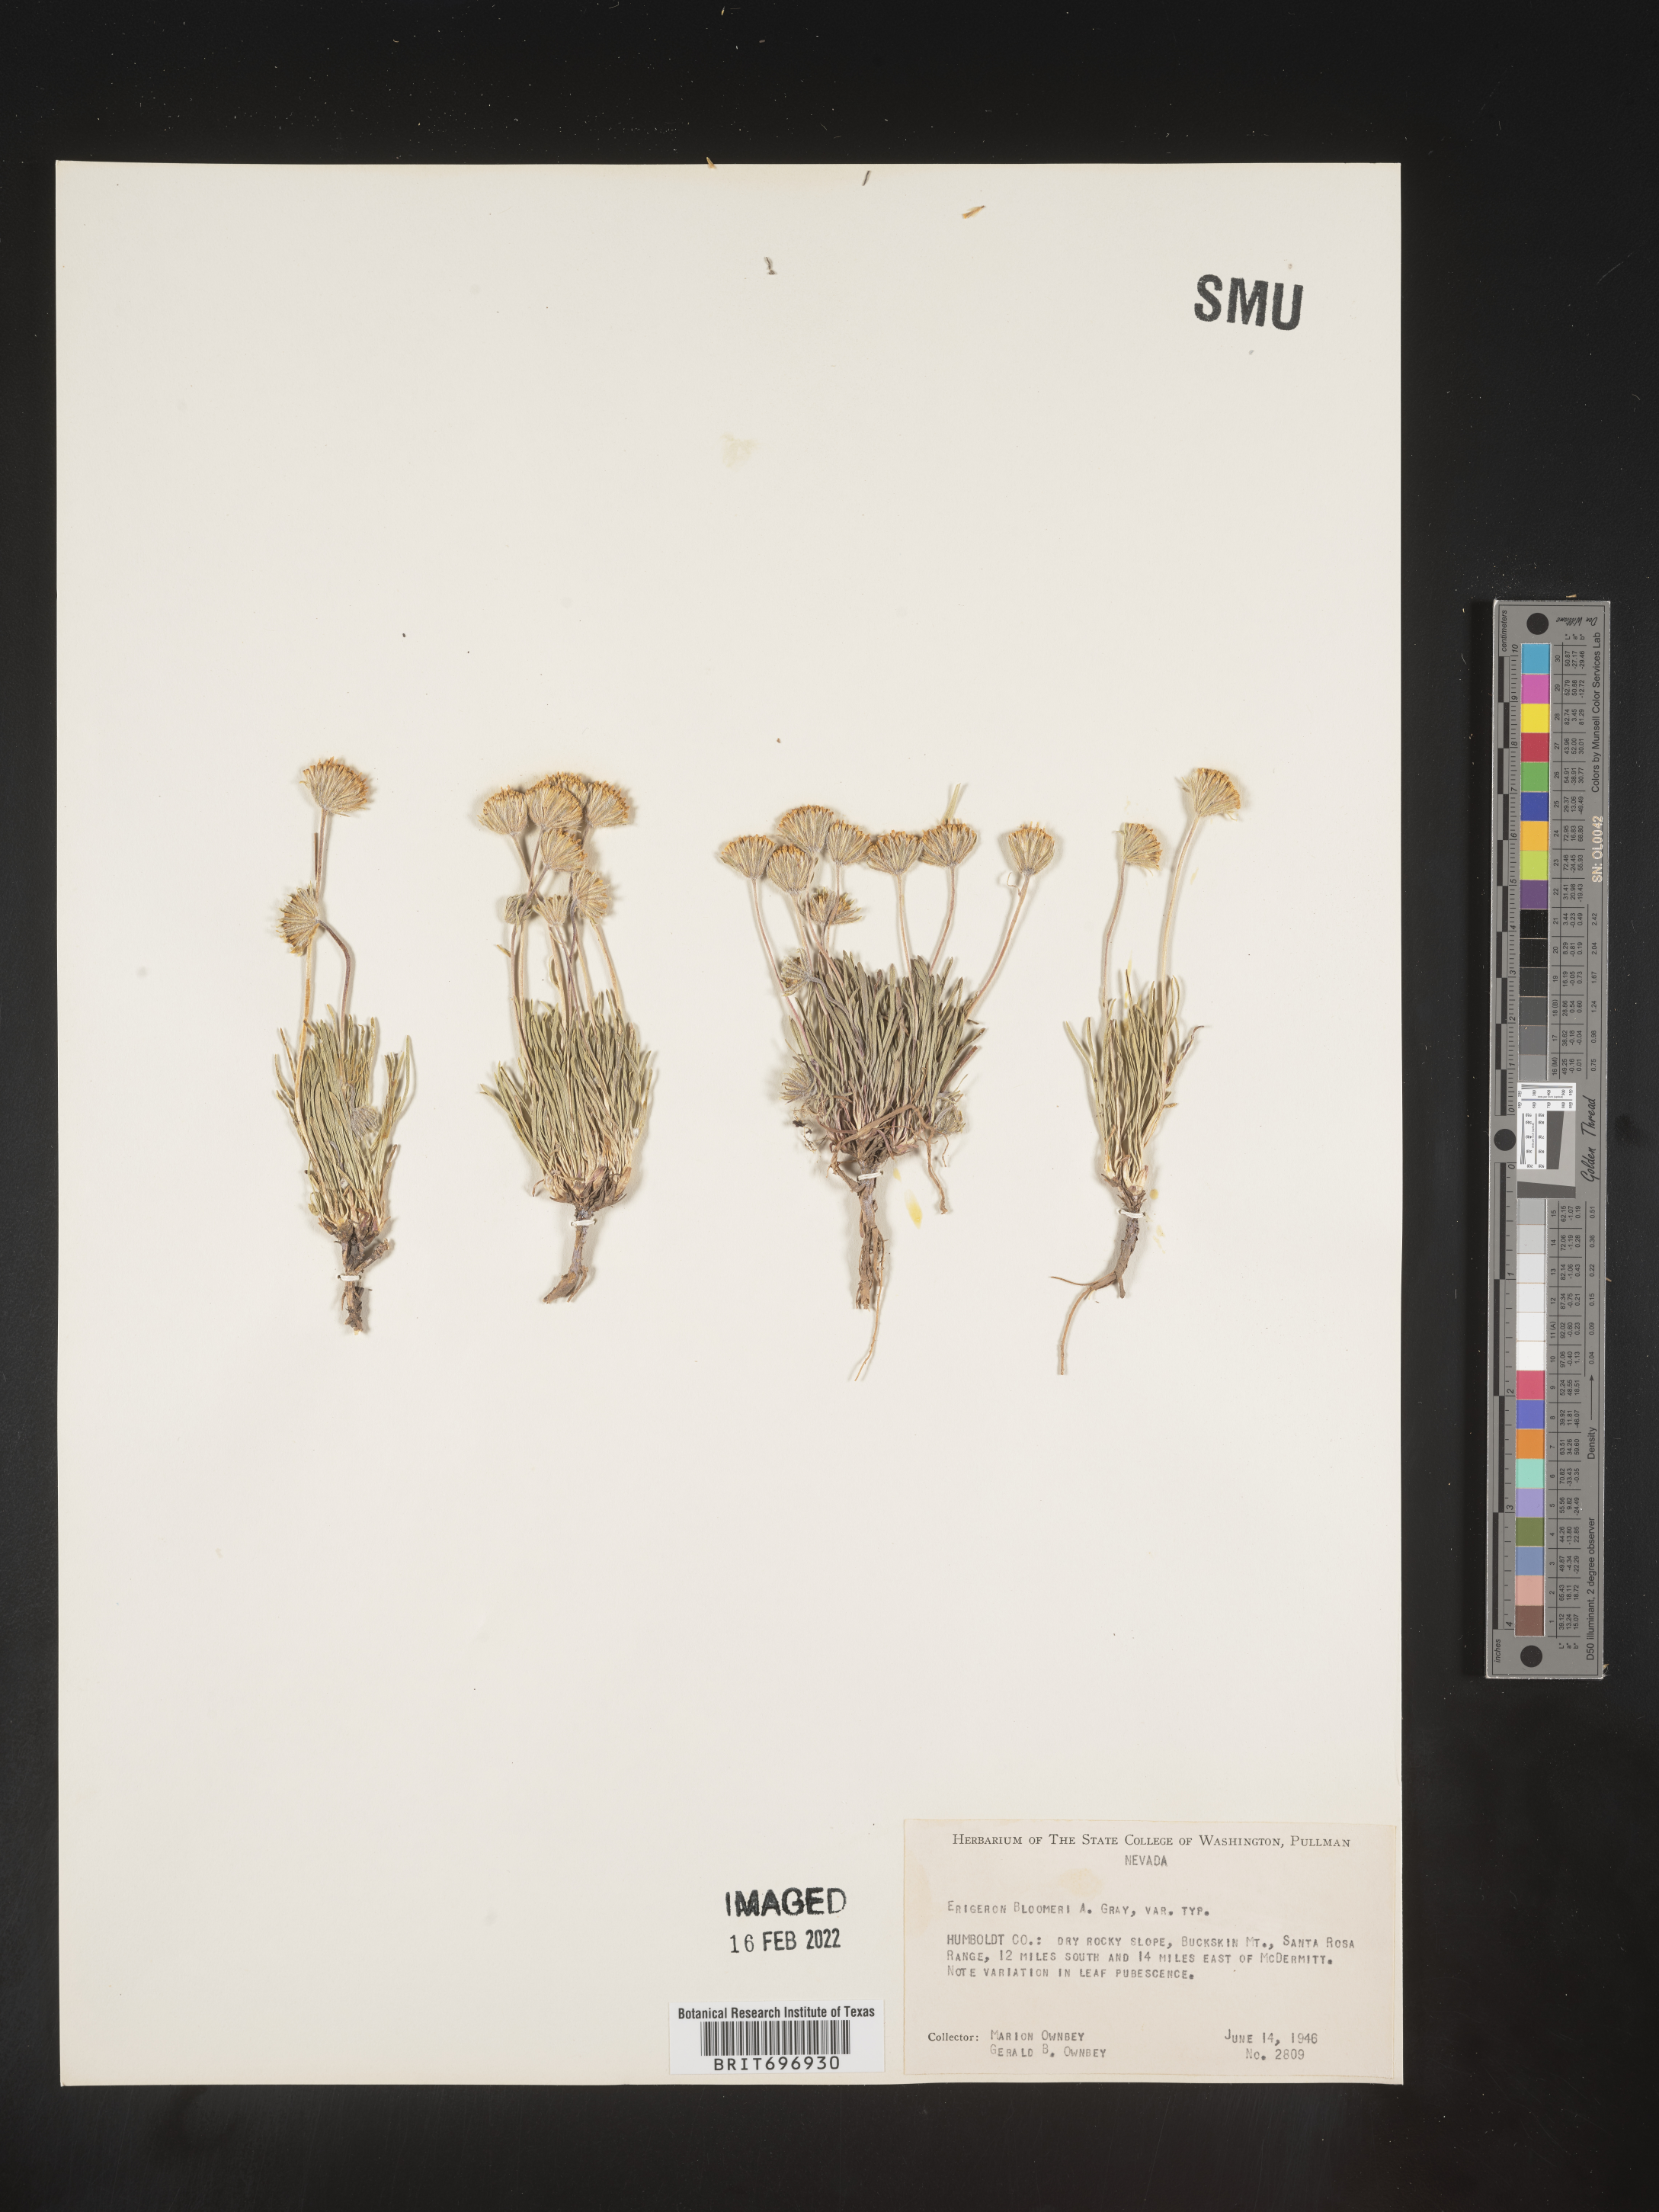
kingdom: Plantae
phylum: Tracheophyta
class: Magnoliopsida
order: Asterales
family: Asteraceae
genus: Erigeron
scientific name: Erigeron bloomeri
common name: Bloomer's fleabane
